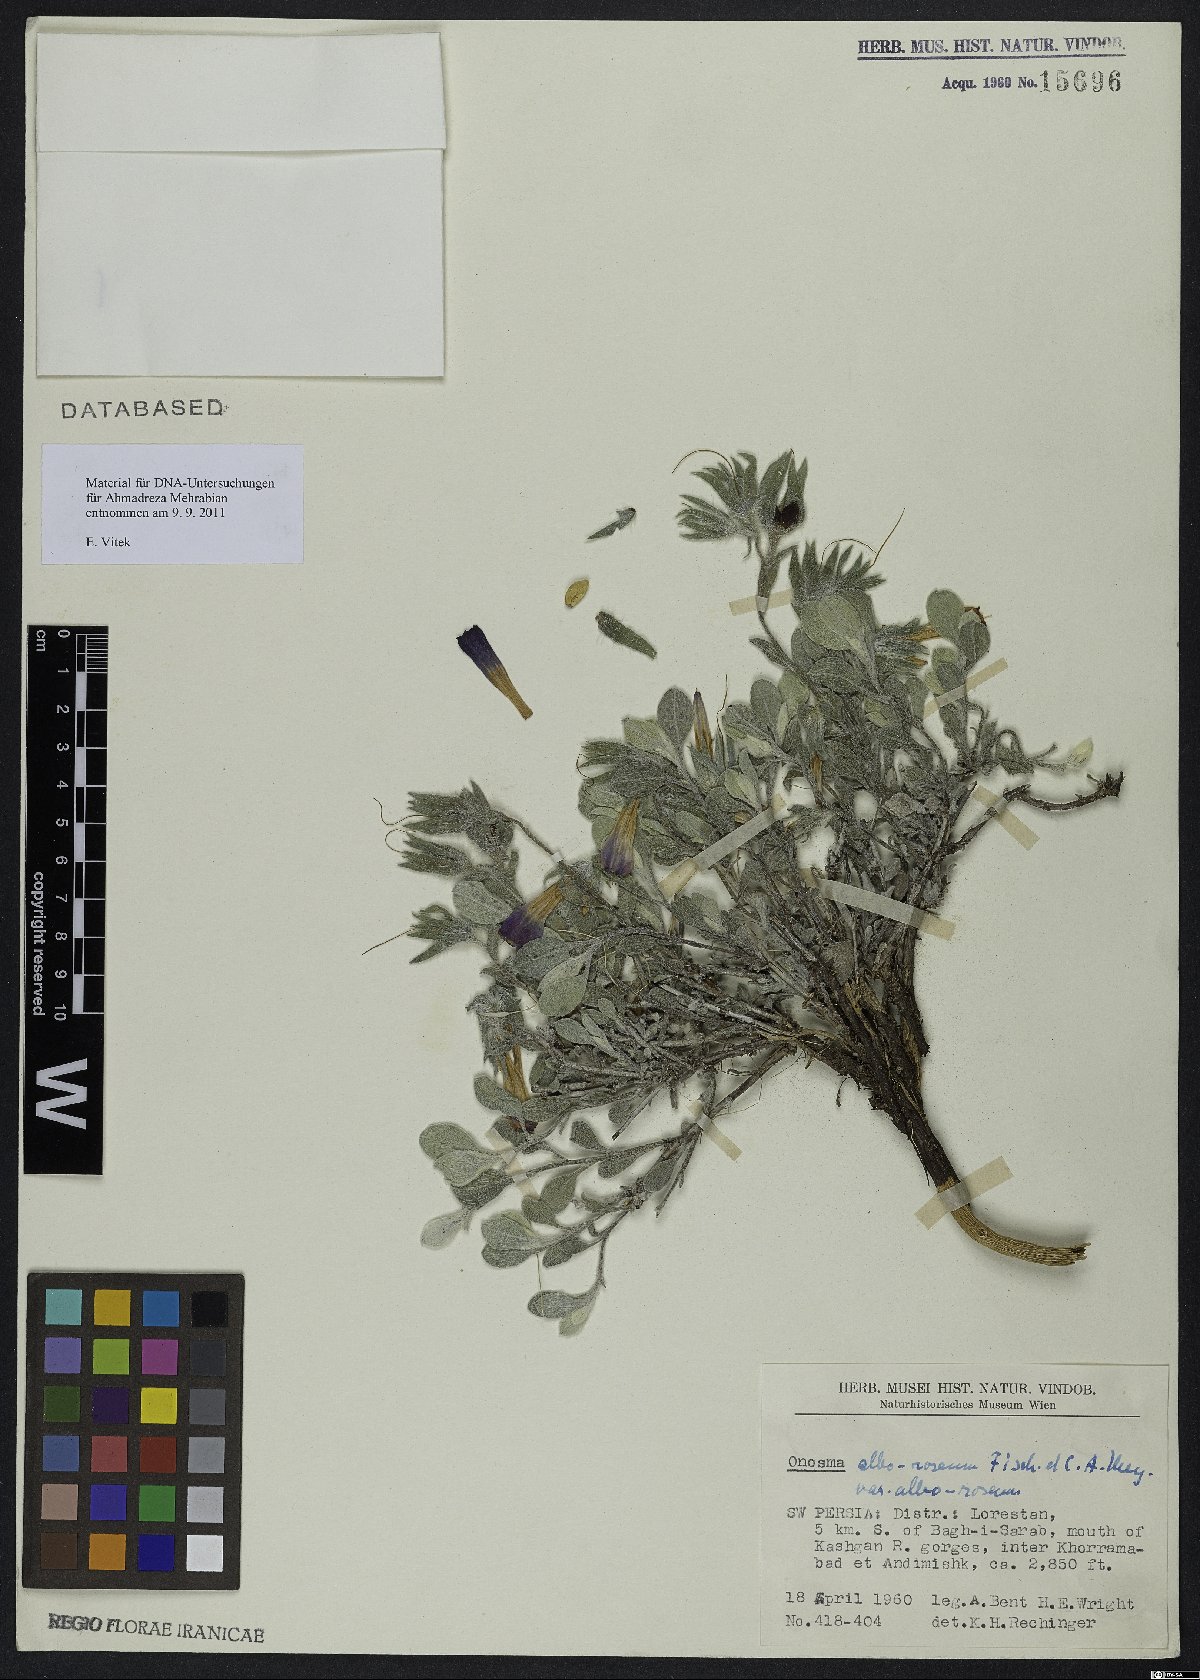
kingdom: Plantae
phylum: Tracheophyta
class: Magnoliopsida
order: Boraginales
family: Boraginaceae
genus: Onosma
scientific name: Onosma alborosea
